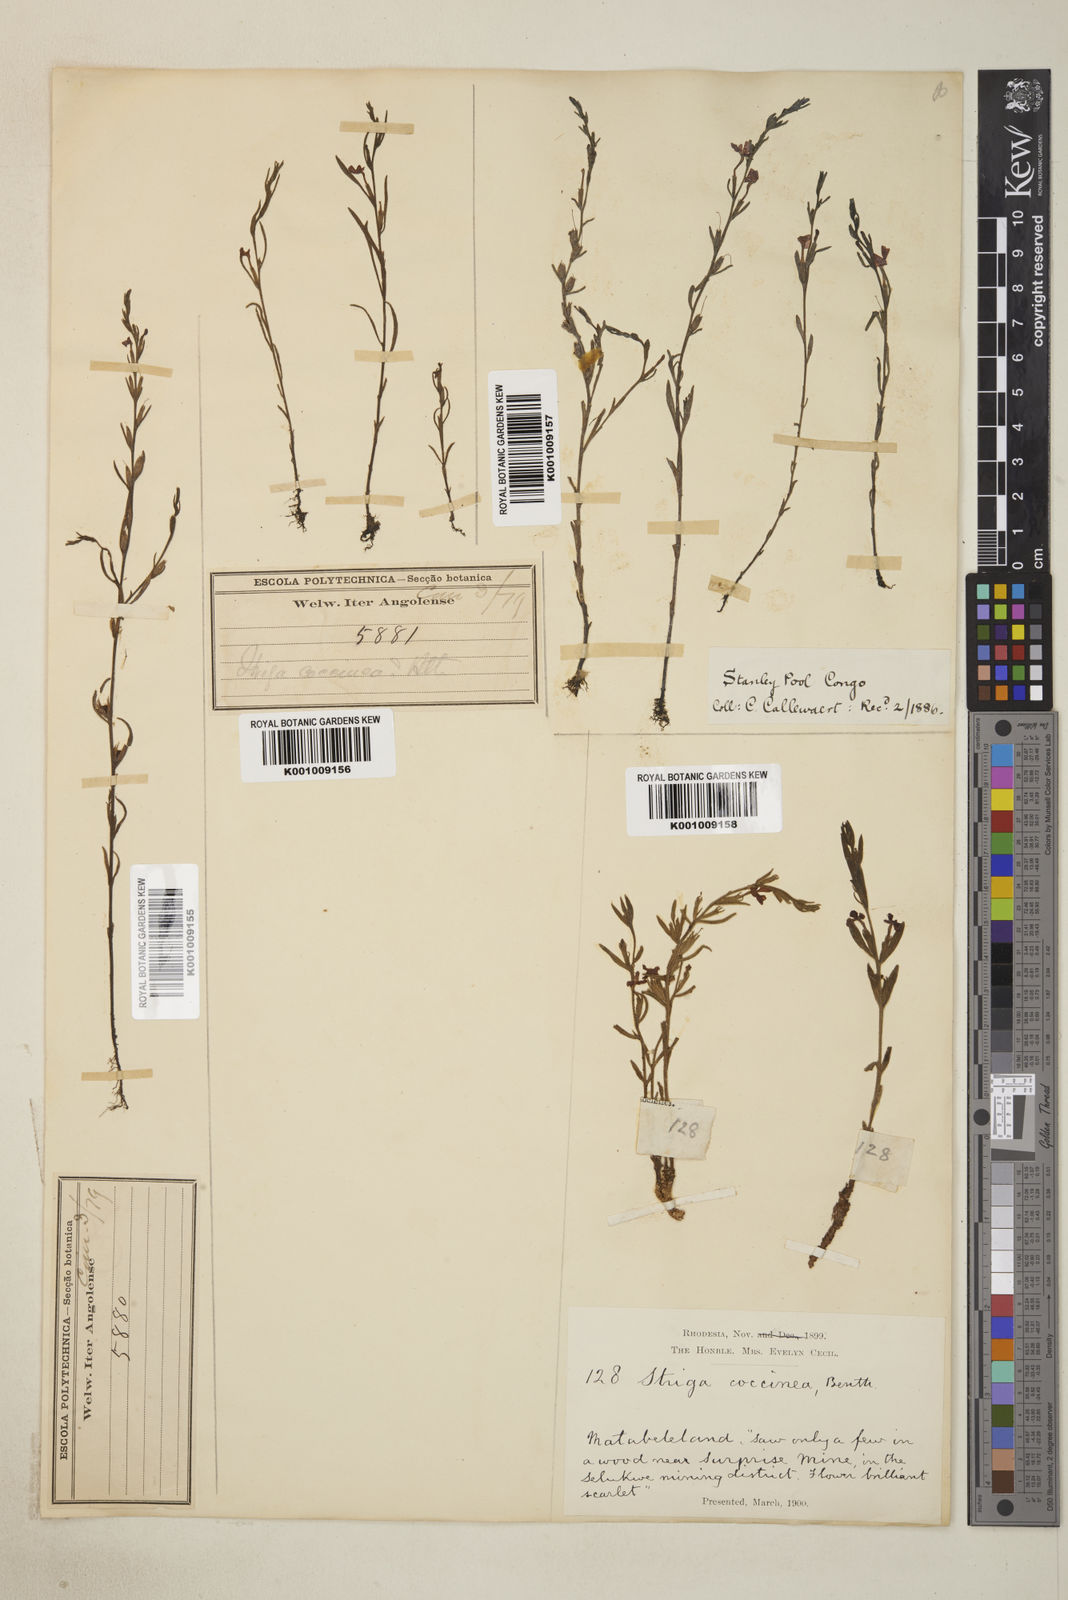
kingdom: Plantae
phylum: Tracheophyta
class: Magnoliopsida
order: Lamiales
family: Orobanchaceae
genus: Striga
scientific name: Striga asiatica
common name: Asiatic witchweed
